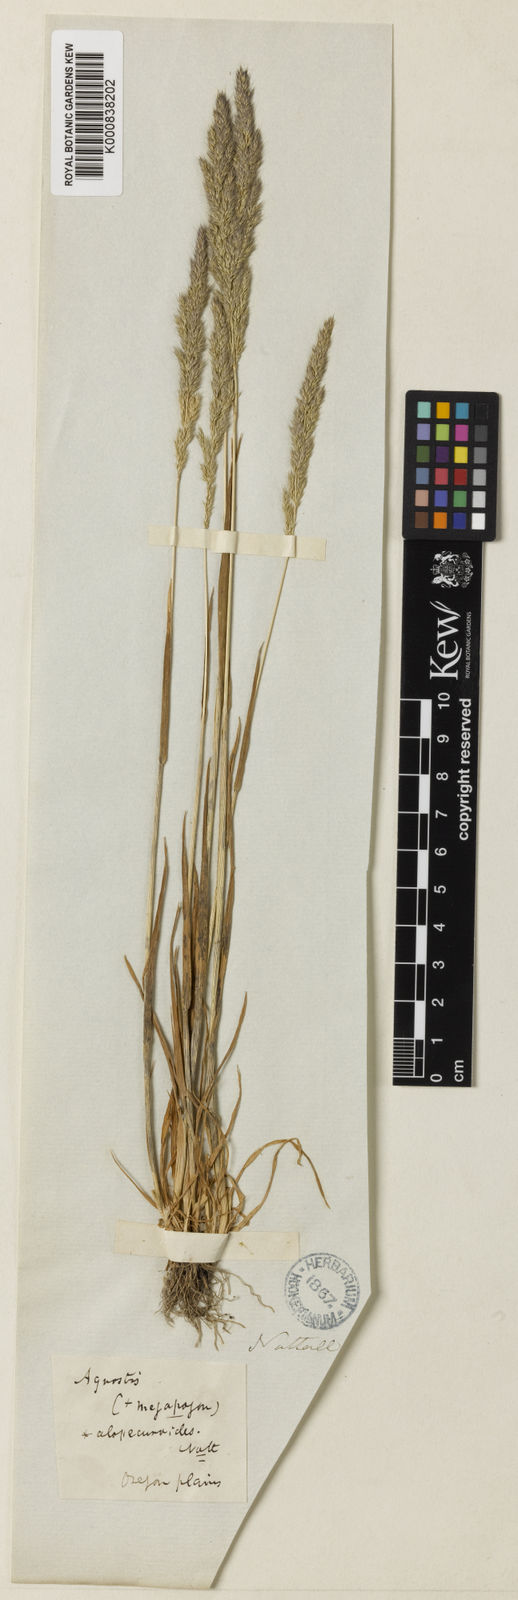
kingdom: Plantae
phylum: Tracheophyta
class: Liliopsida
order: Poales
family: Poaceae
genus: Agrostis
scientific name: Agrostis exarata
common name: Spike bent
